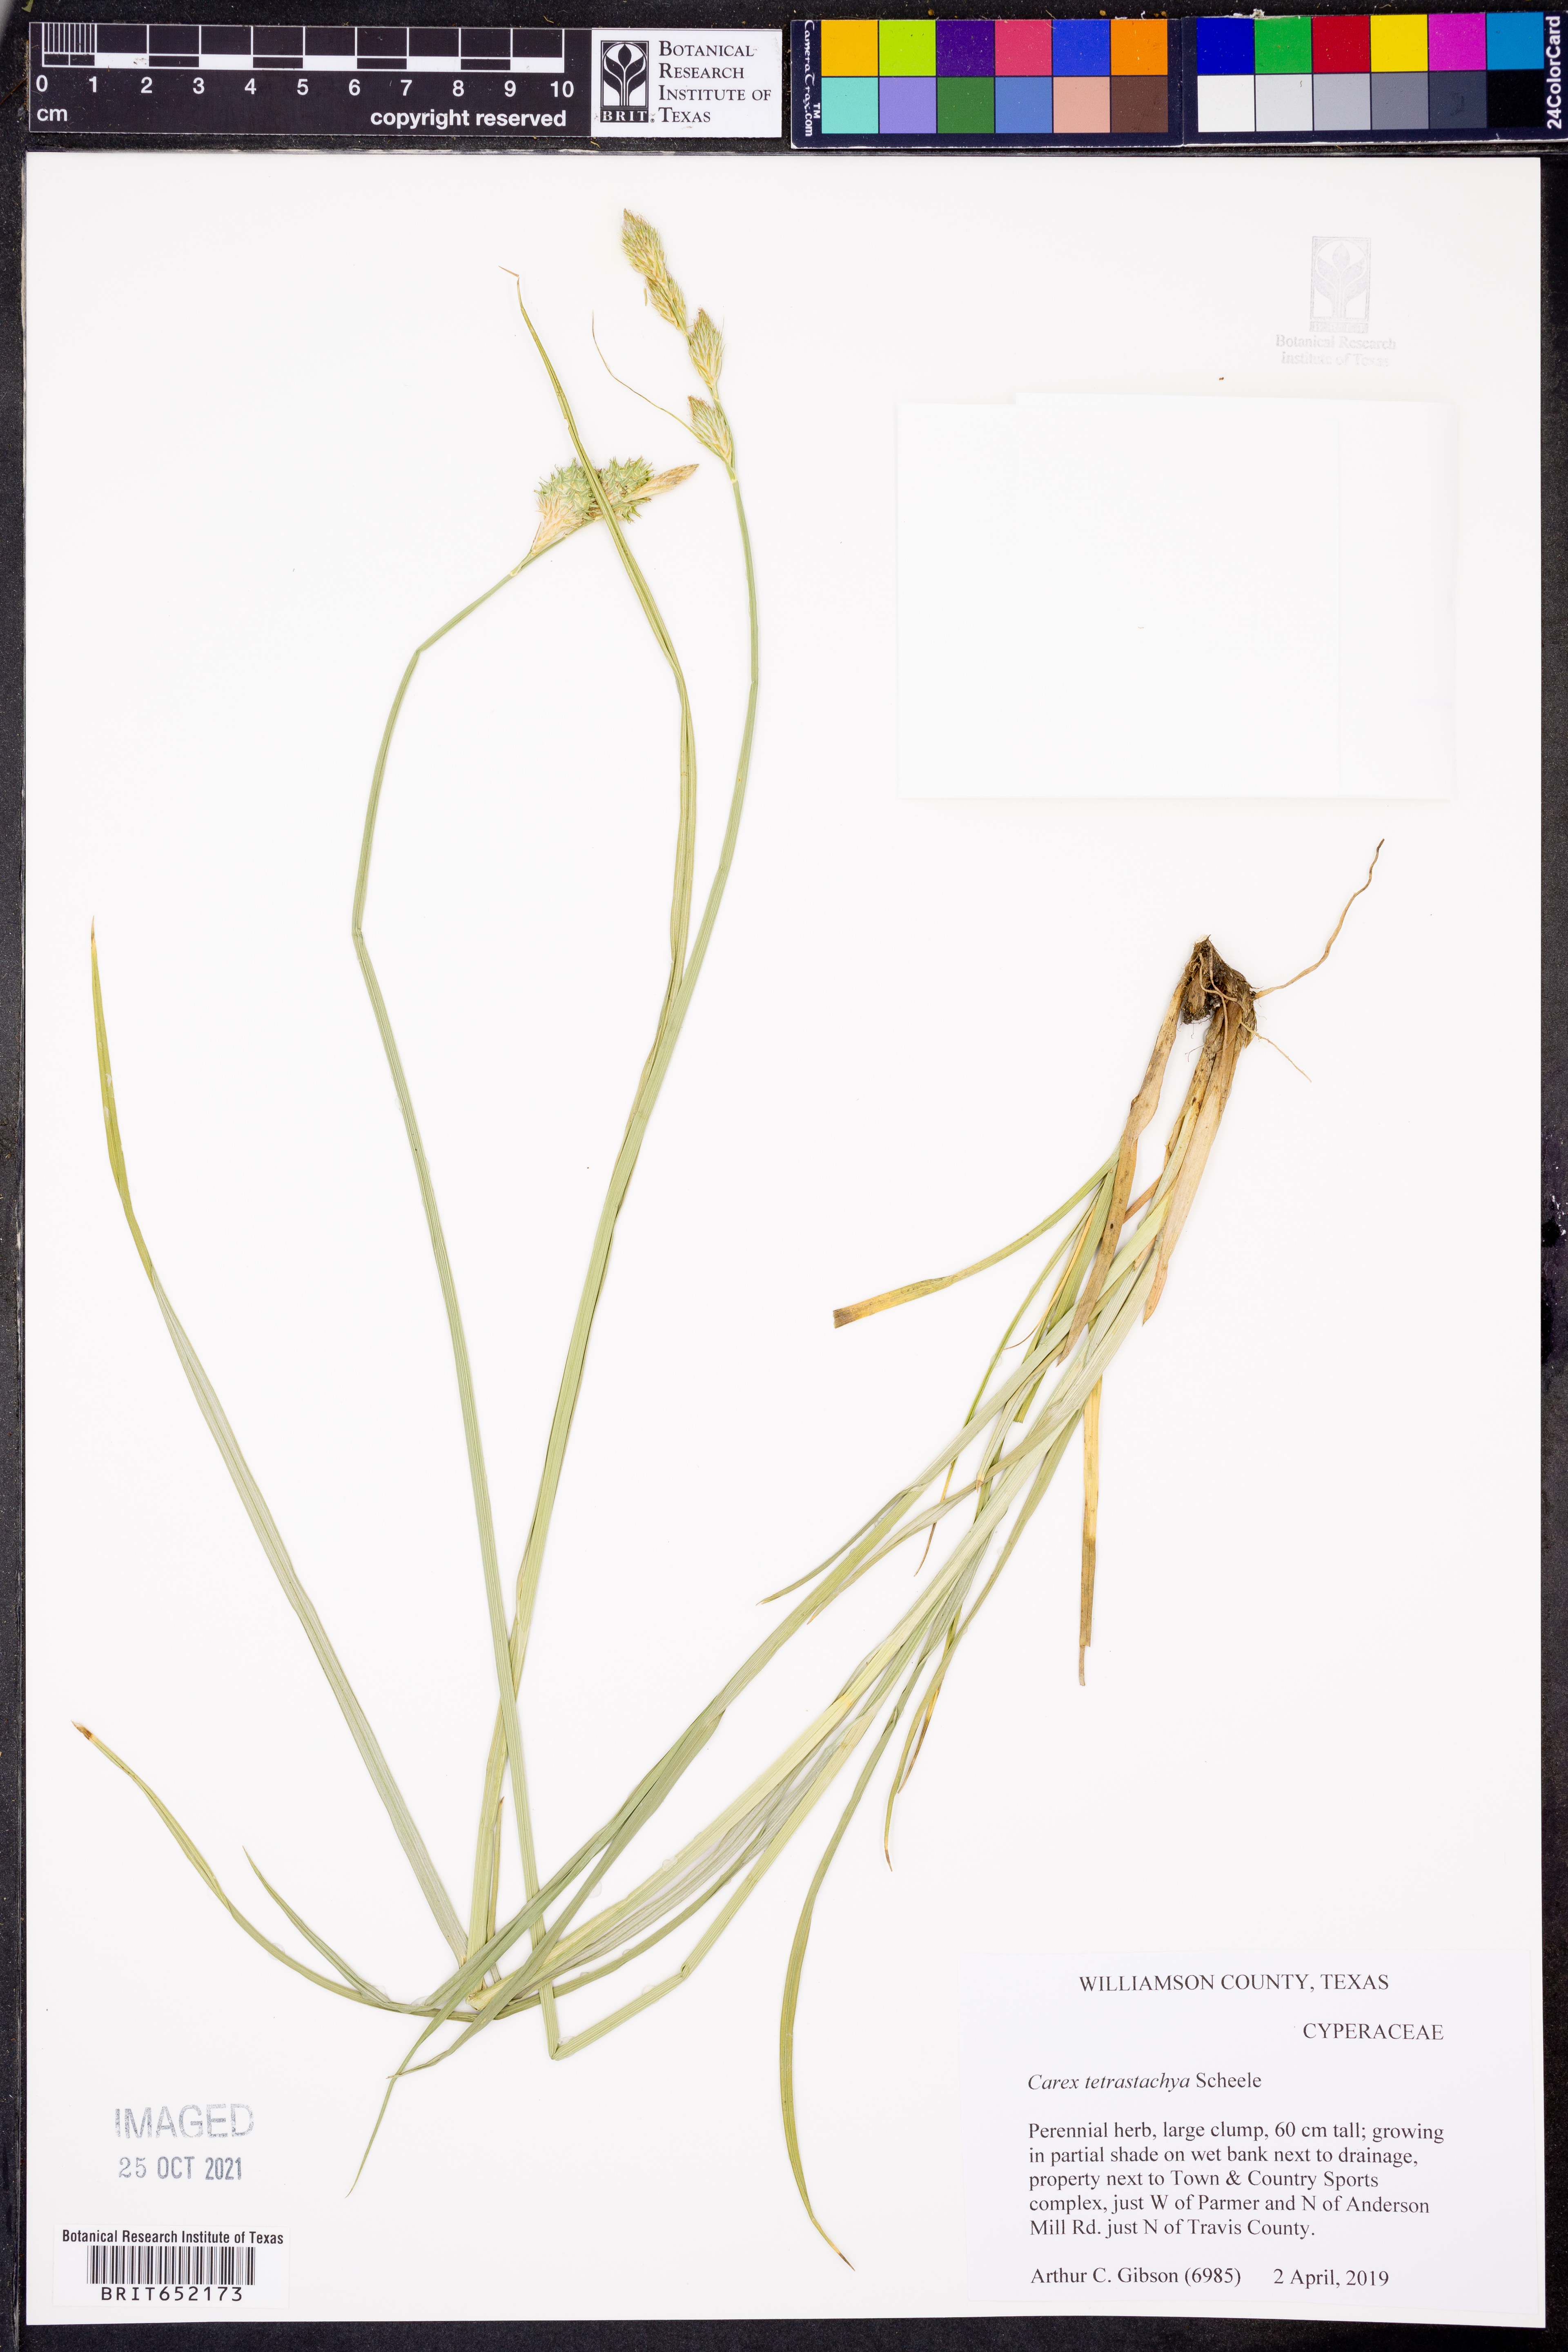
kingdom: Plantae
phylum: Tracheophyta
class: Liliopsida
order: Poales
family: Cyperaceae
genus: Carex
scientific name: Carex tetrastachya
